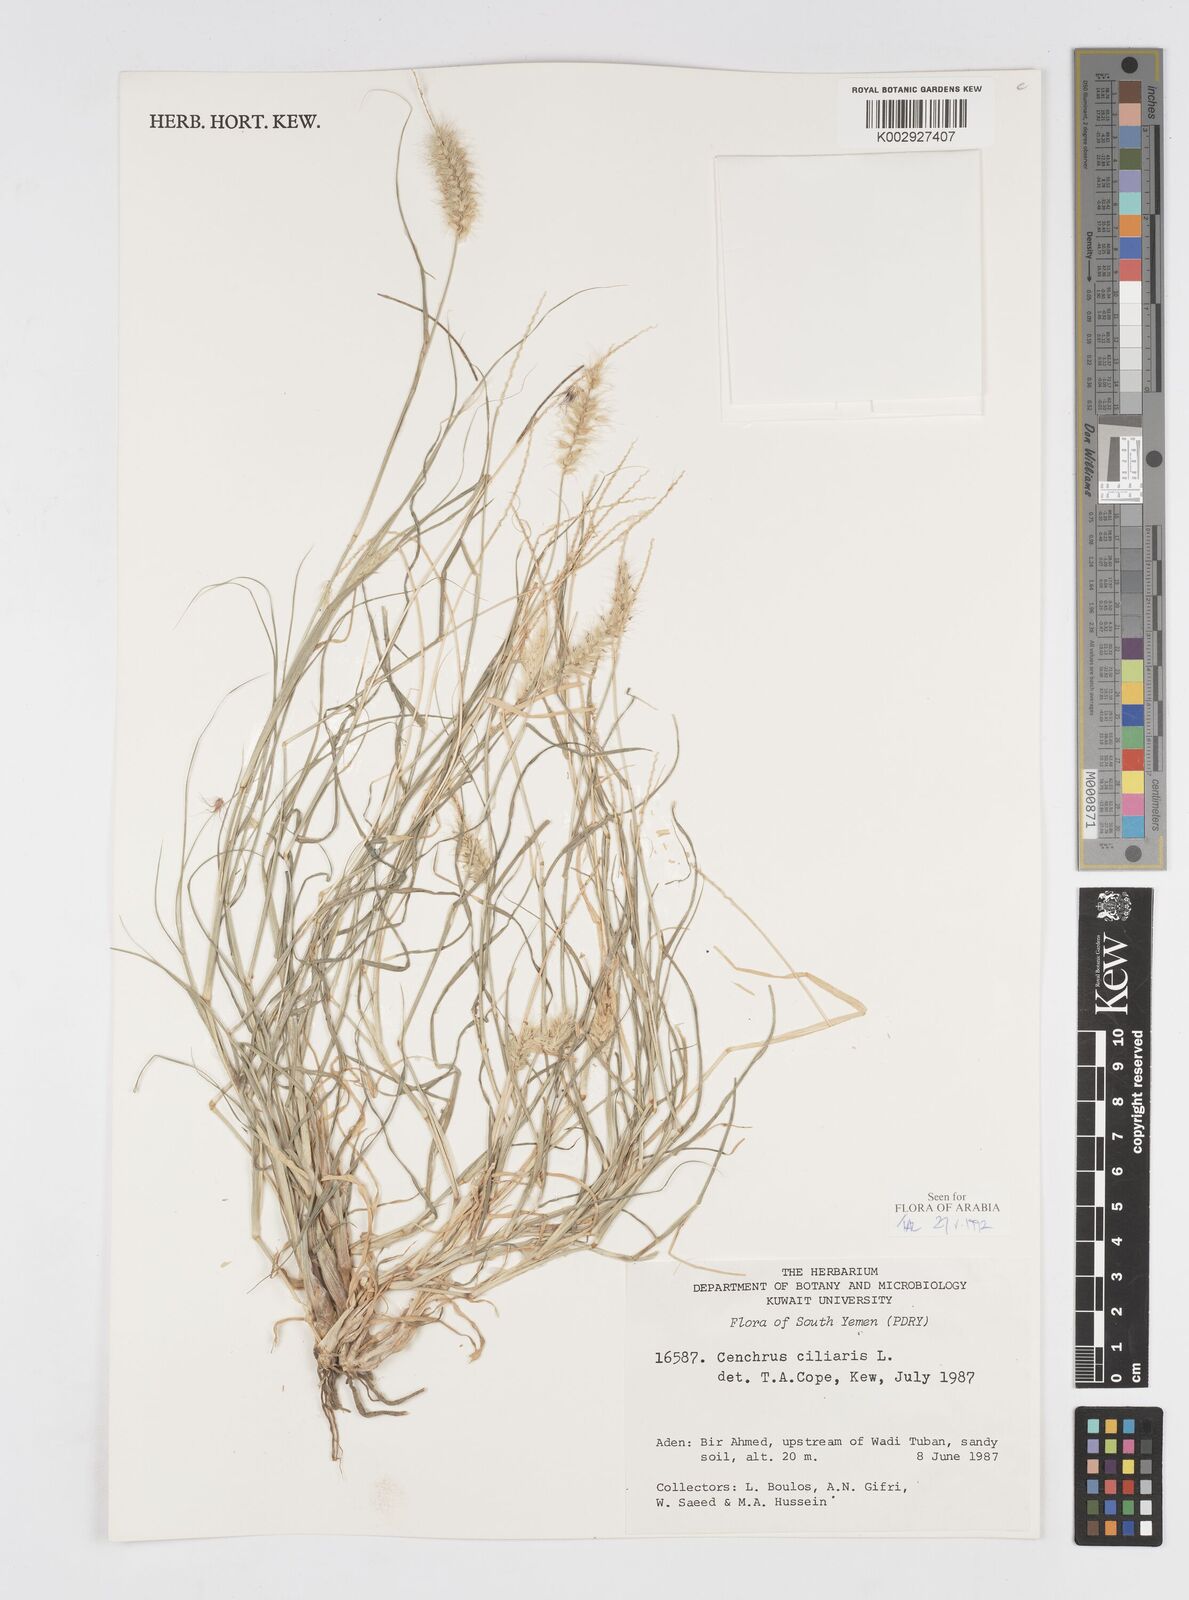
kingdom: Plantae
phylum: Tracheophyta
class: Liliopsida
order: Poales
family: Poaceae
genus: Cenchrus
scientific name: Cenchrus ciliaris
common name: Buffelgrass
